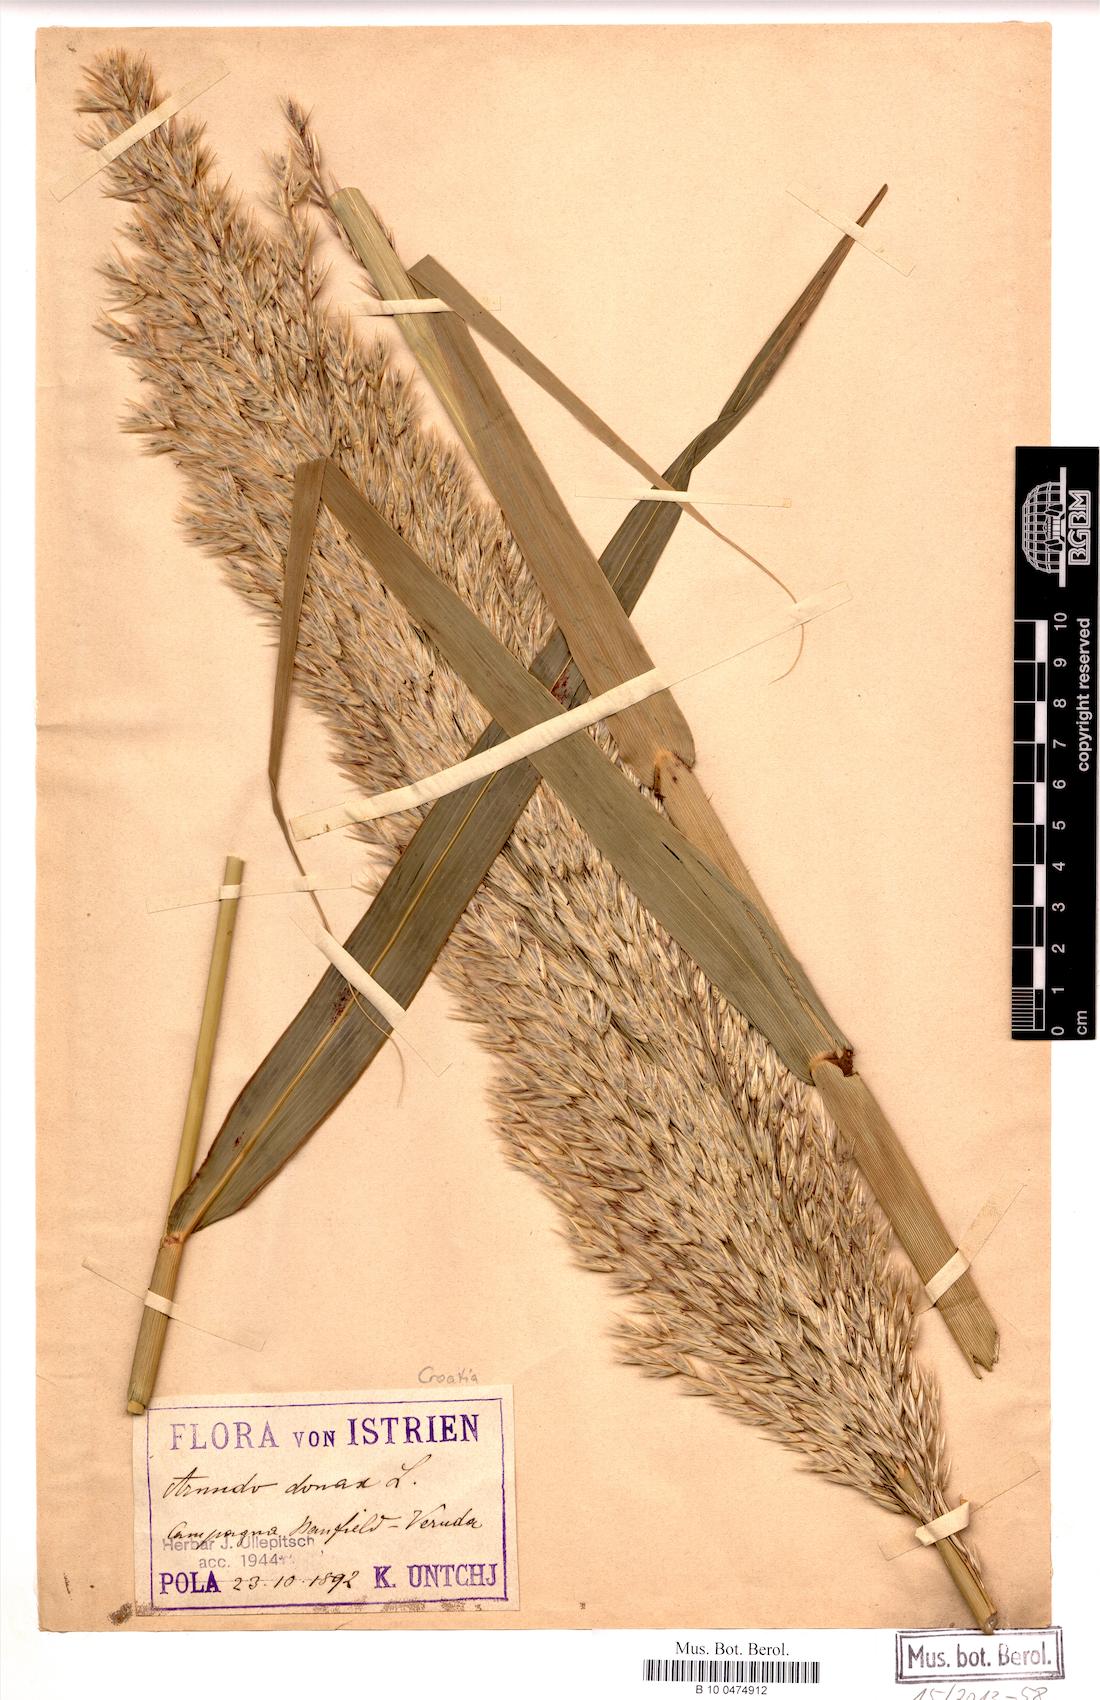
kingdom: Plantae
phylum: Tracheophyta
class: Liliopsida
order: Poales
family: Poaceae
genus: Arundo
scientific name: Arundo donax
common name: Giant reed
